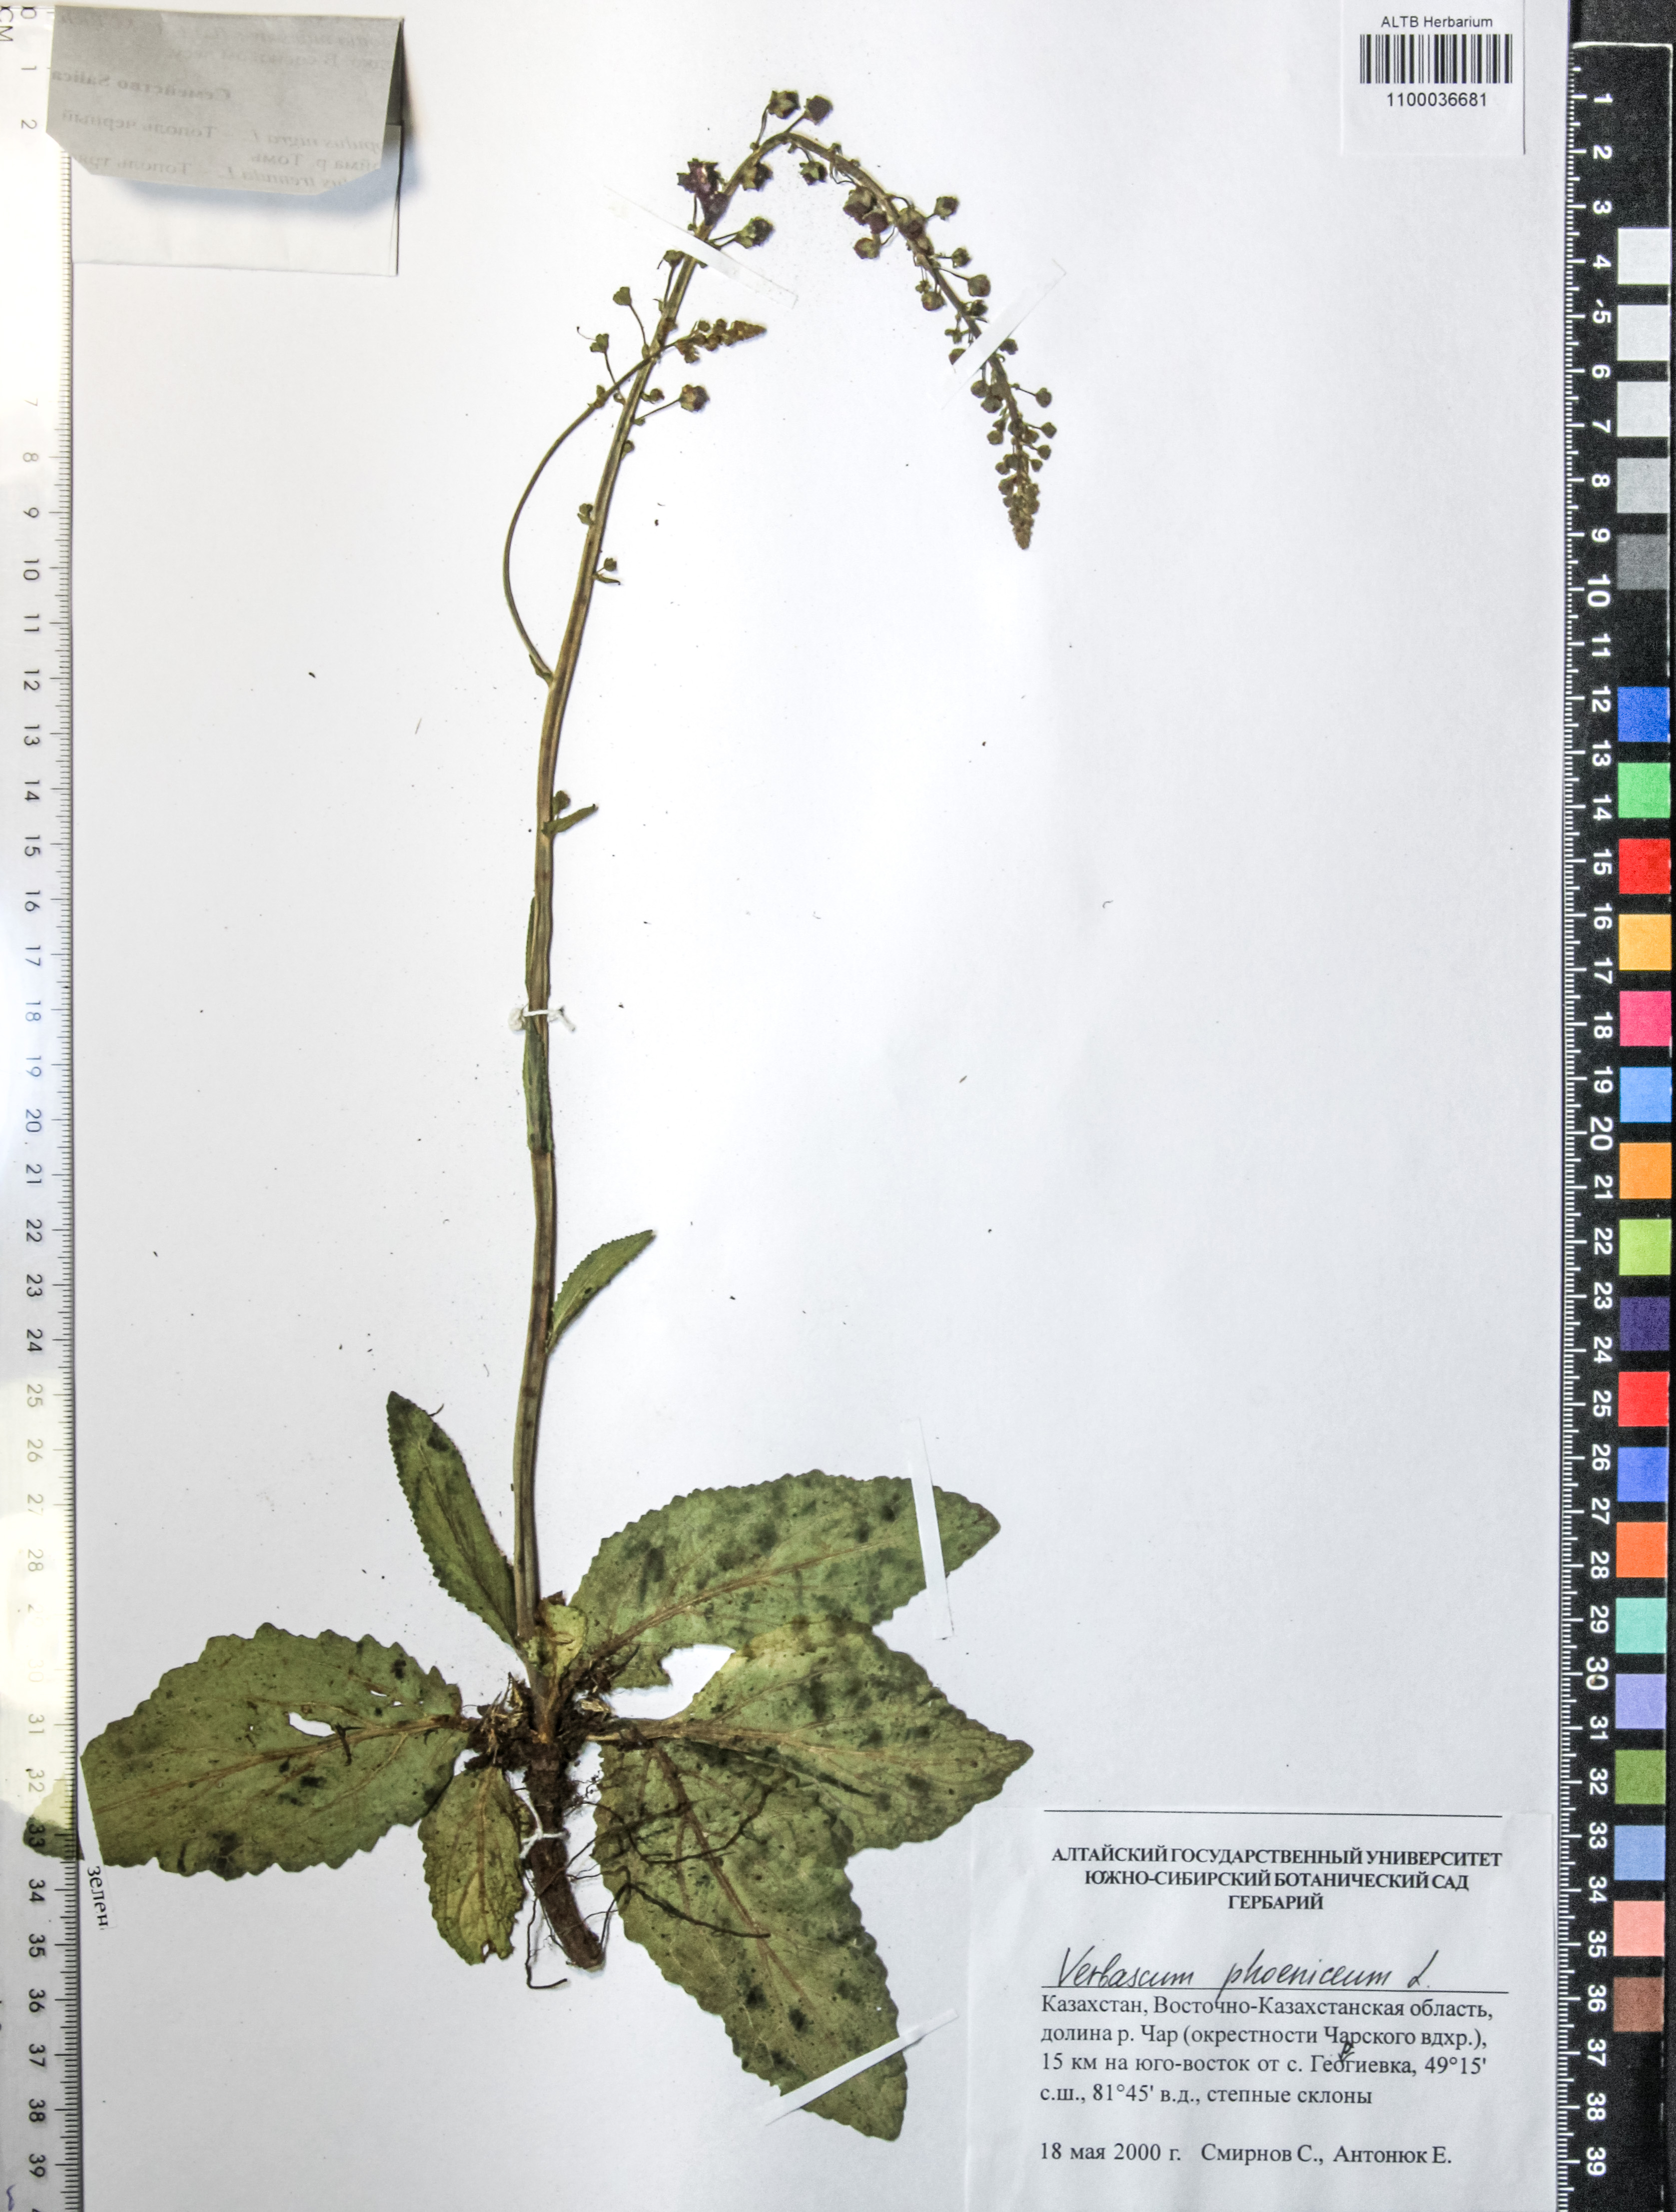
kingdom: Plantae
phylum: Tracheophyta
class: Magnoliopsida
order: Lamiales
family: Scrophulariaceae
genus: Verbascum
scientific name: Verbascum phoeniceum
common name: Purple mullein
